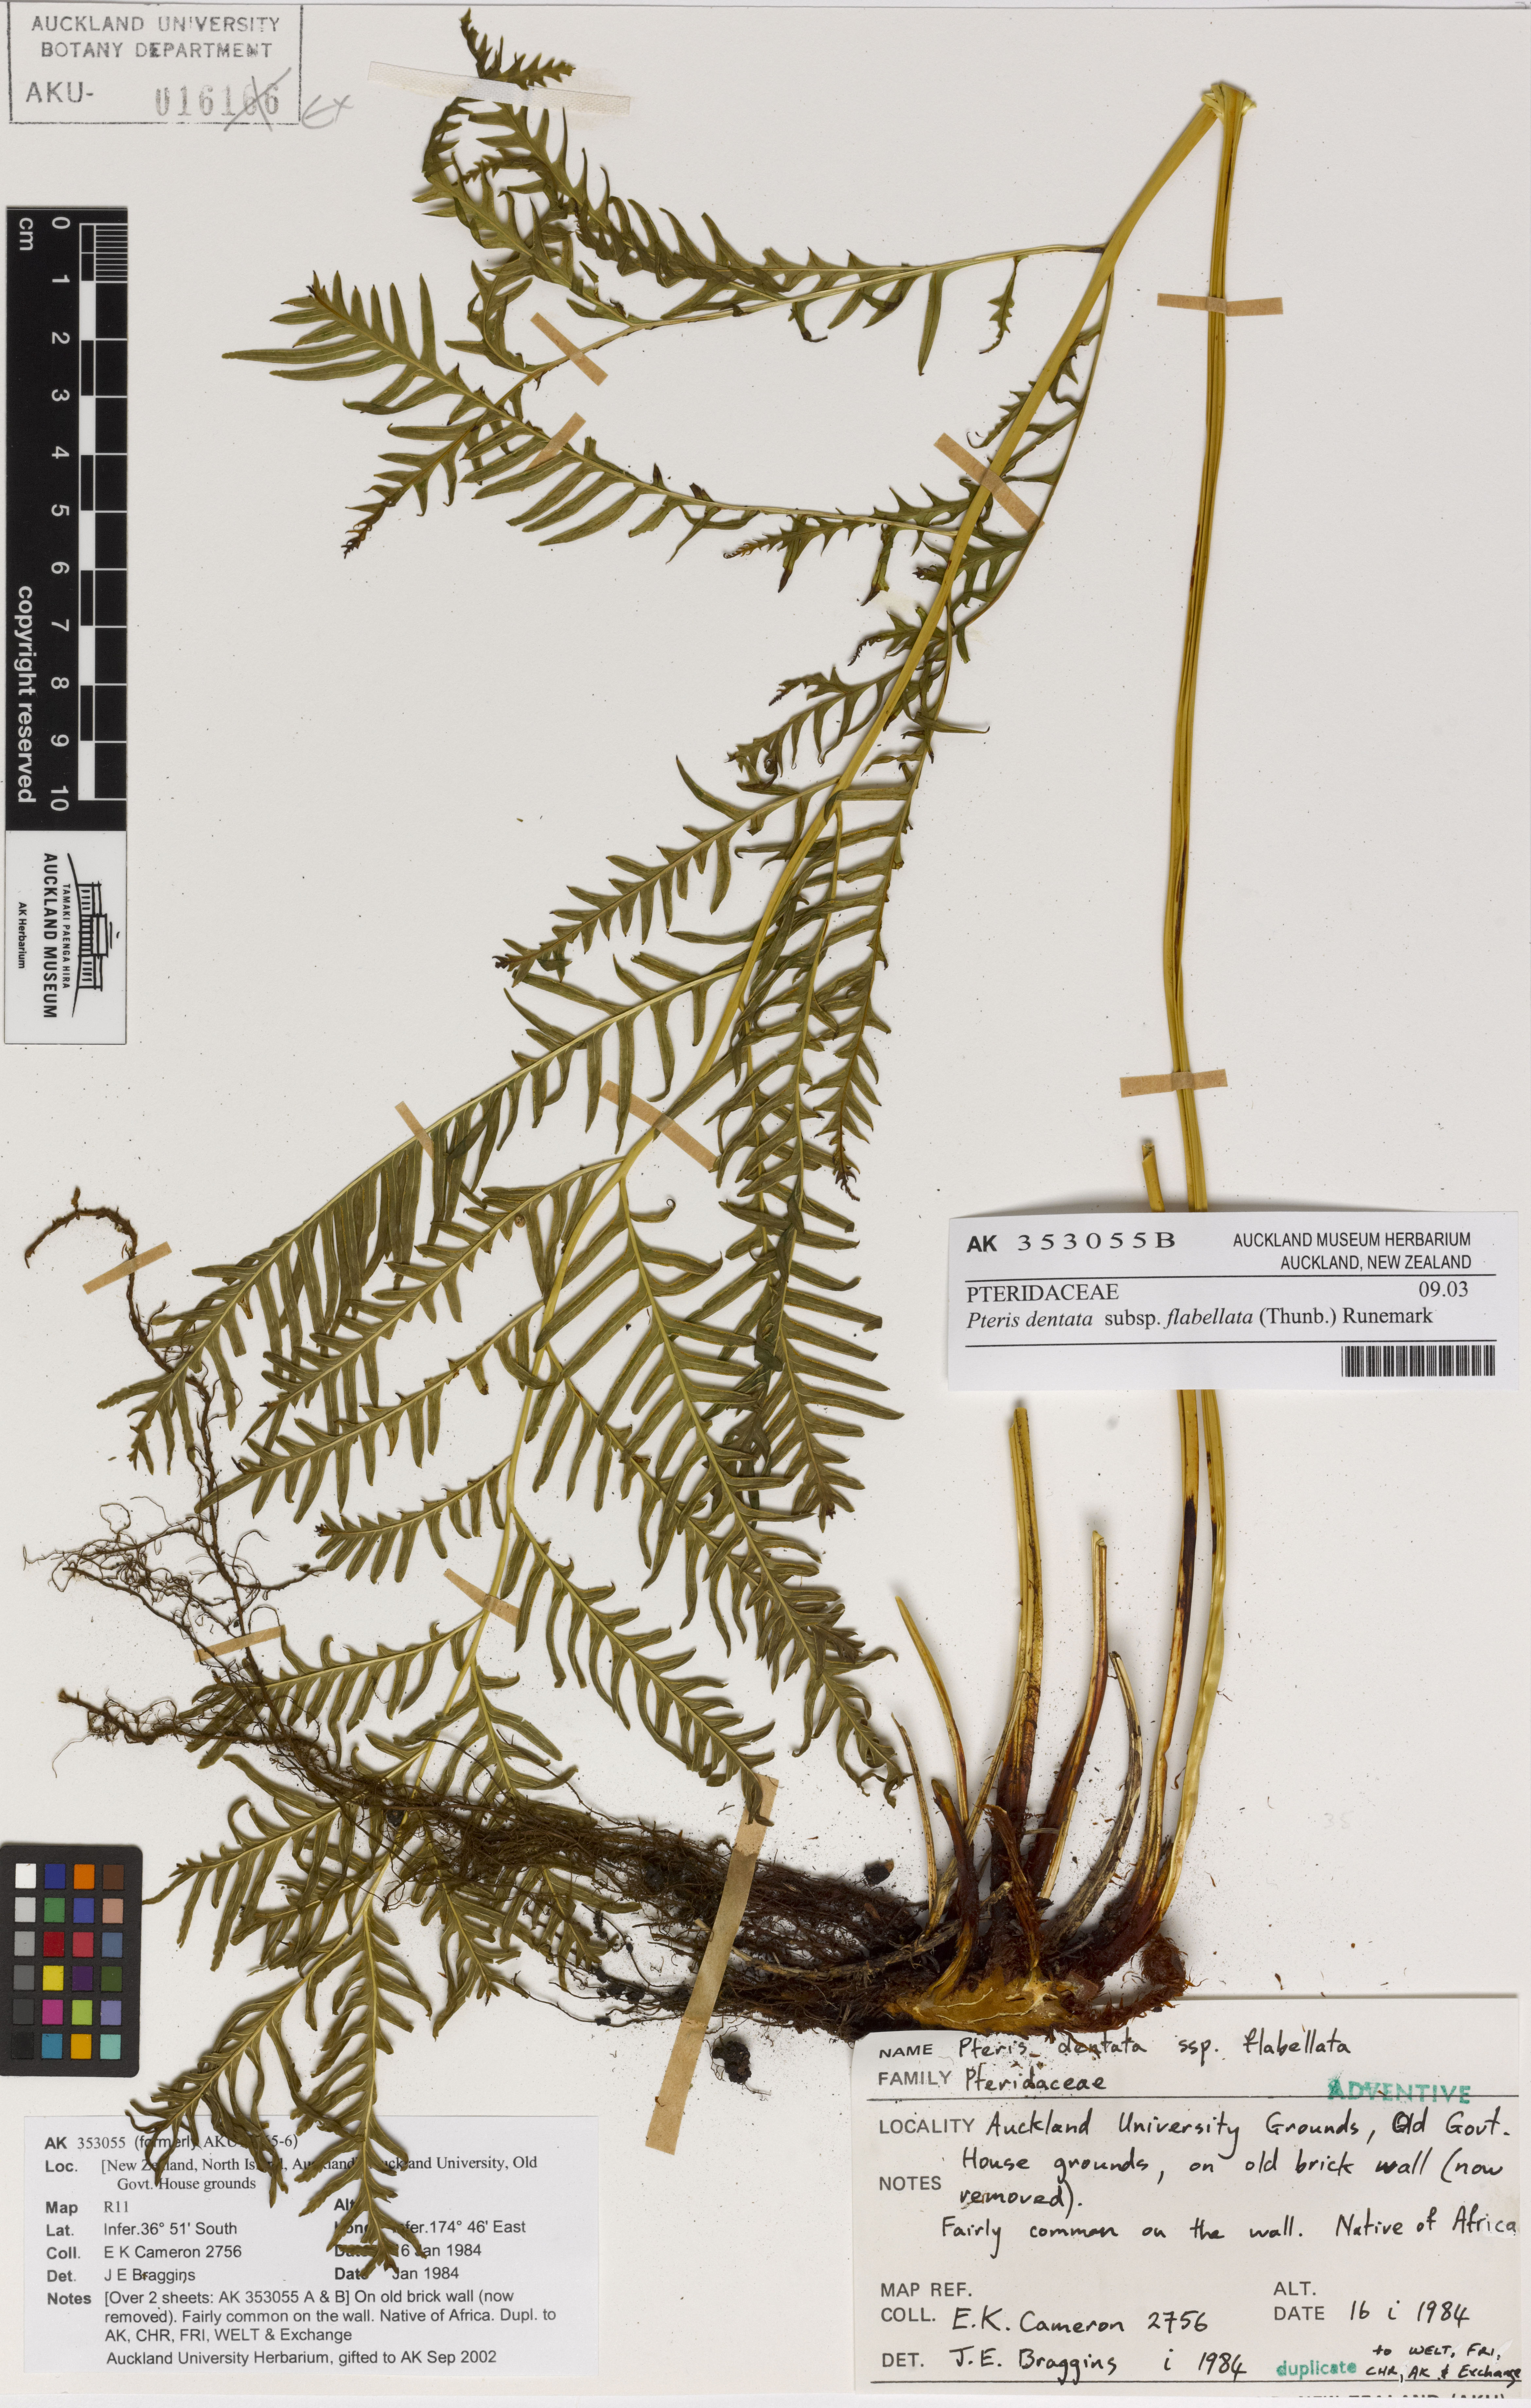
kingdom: Plantae
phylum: Tracheophyta
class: Polypodiopsida
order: Polypodiales
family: Pteridaceae
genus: Pteris
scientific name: Pteris dentata
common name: Toothed brake
